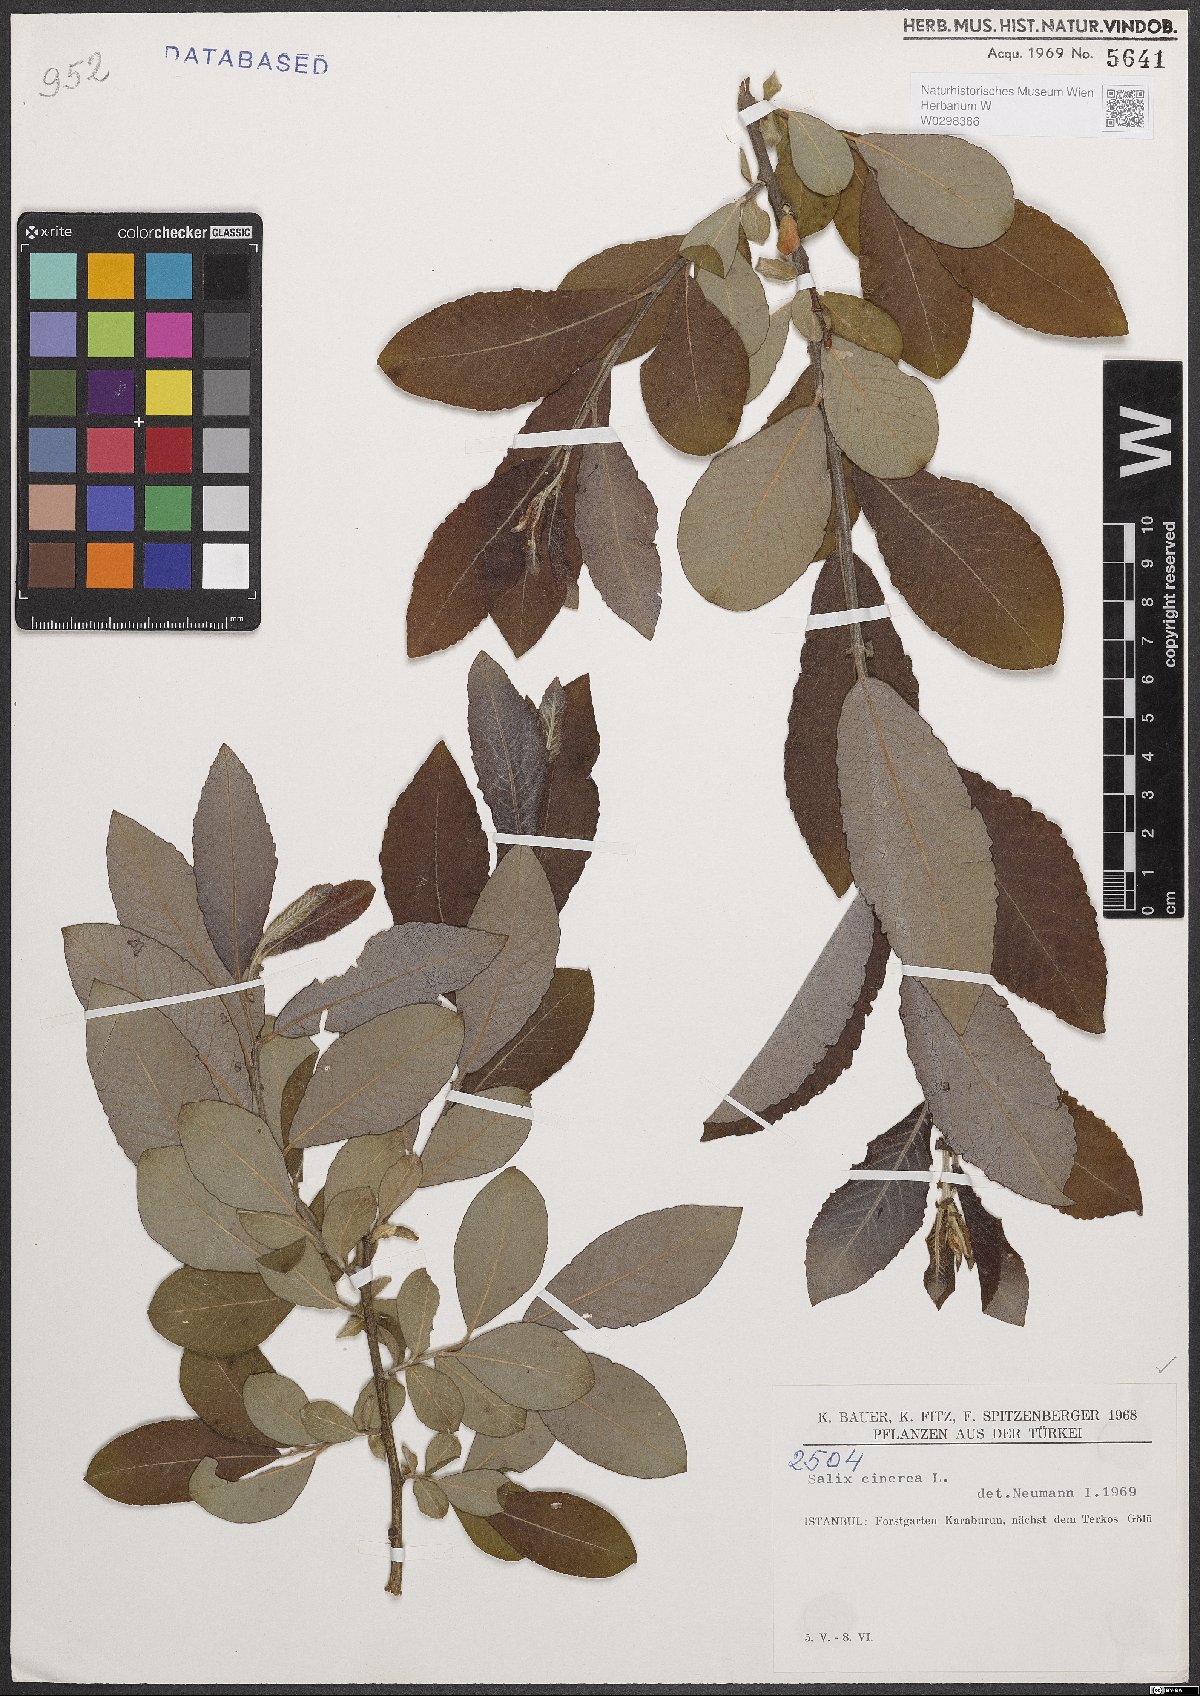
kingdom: Plantae
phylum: Tracheophyta
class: Magnoliopsida
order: Malpighiales
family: Salicaceae
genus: Salix
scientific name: Salix cinerea
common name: Common sallow
